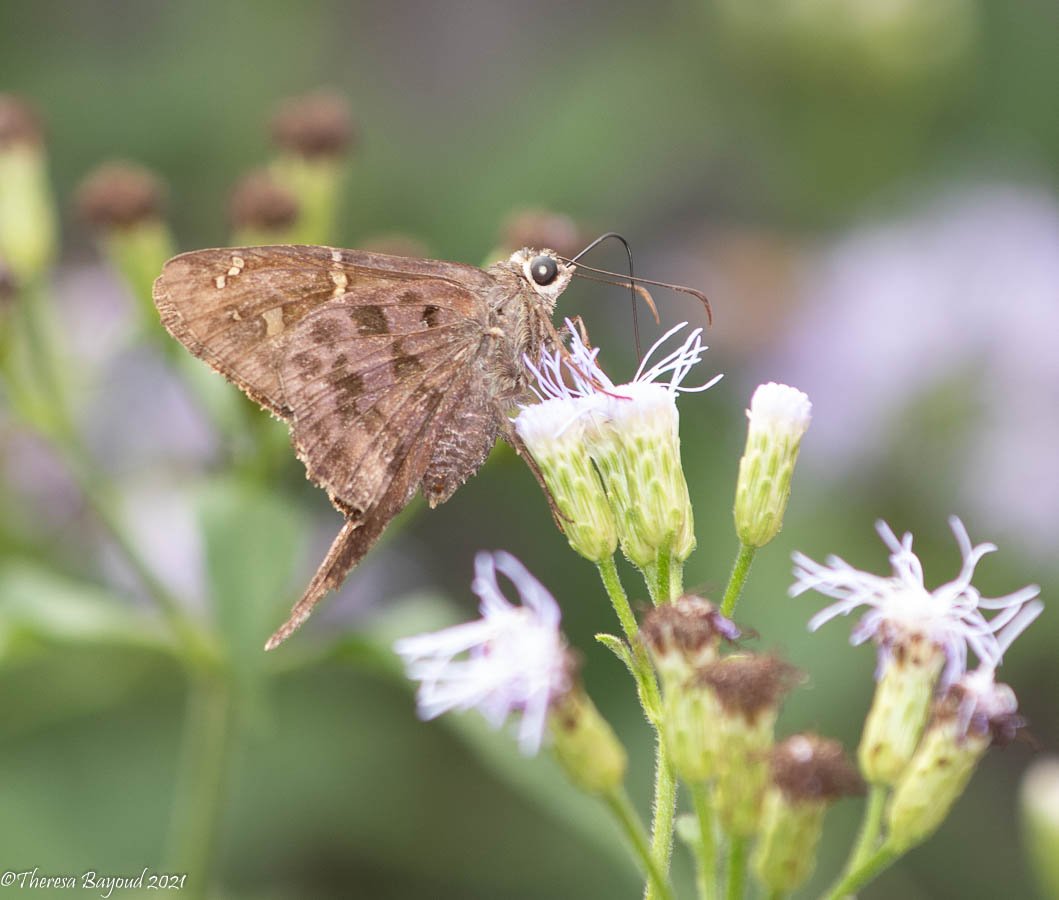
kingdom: Animalia
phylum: Arthropoda
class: Insecta
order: Lepidoptera
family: Hesperiidae
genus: Urbanus
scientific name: Urbanus dorantes
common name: Dorantes Longtail
